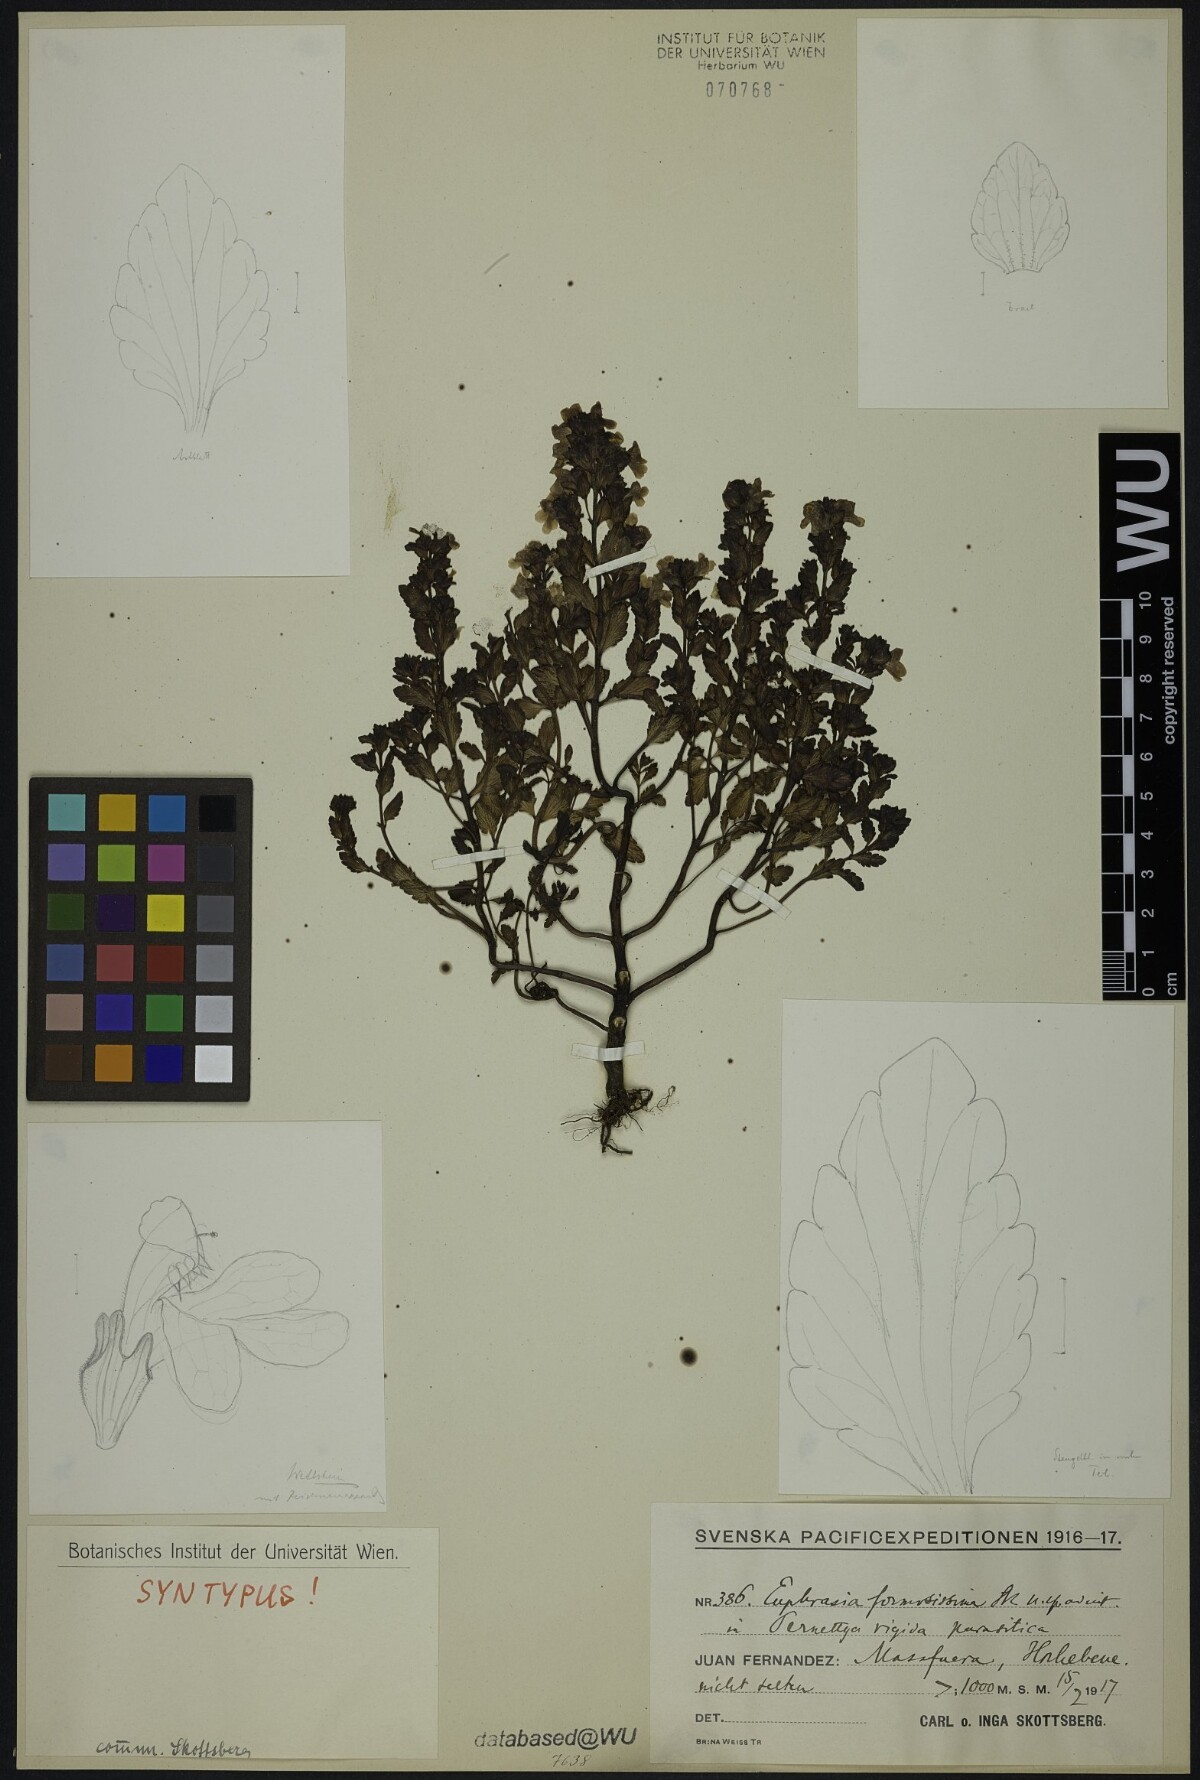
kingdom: Plantae
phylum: Tracheophyta
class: Magnoliopsida
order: Lamiales
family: Orobanchaceae
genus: Euphrasia
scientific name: Euphrasia formosissima
